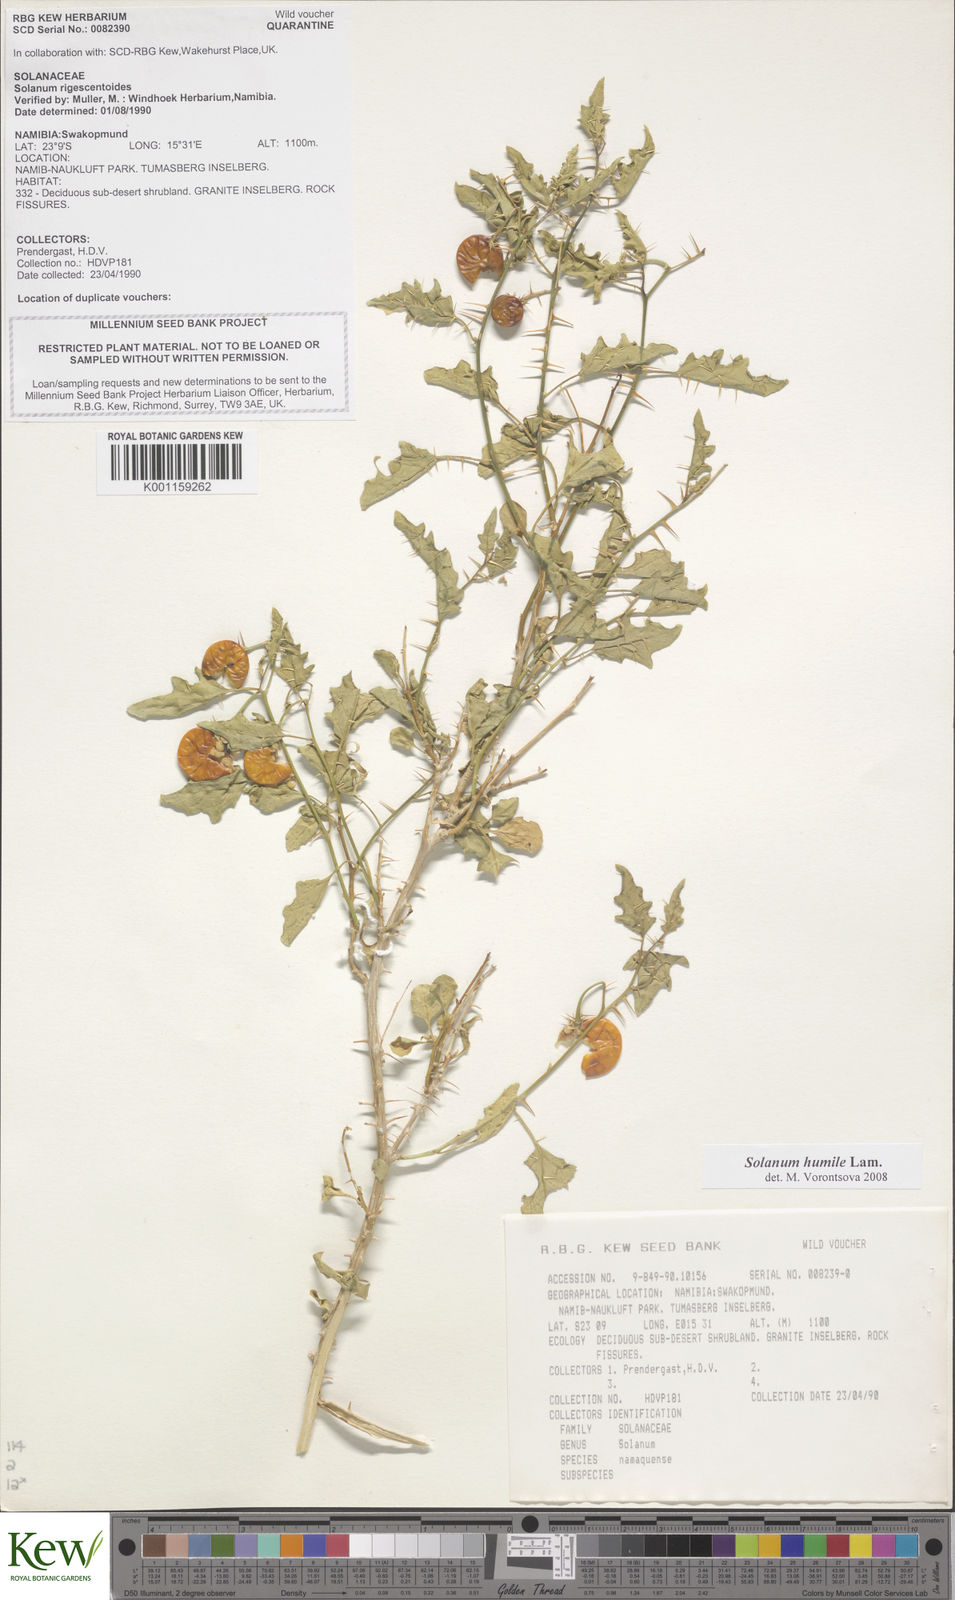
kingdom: Plantae
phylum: Tracheophyta
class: Magnoliopsida
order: Solanales
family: Solanaceae
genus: Solanum
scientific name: Solanum humile
